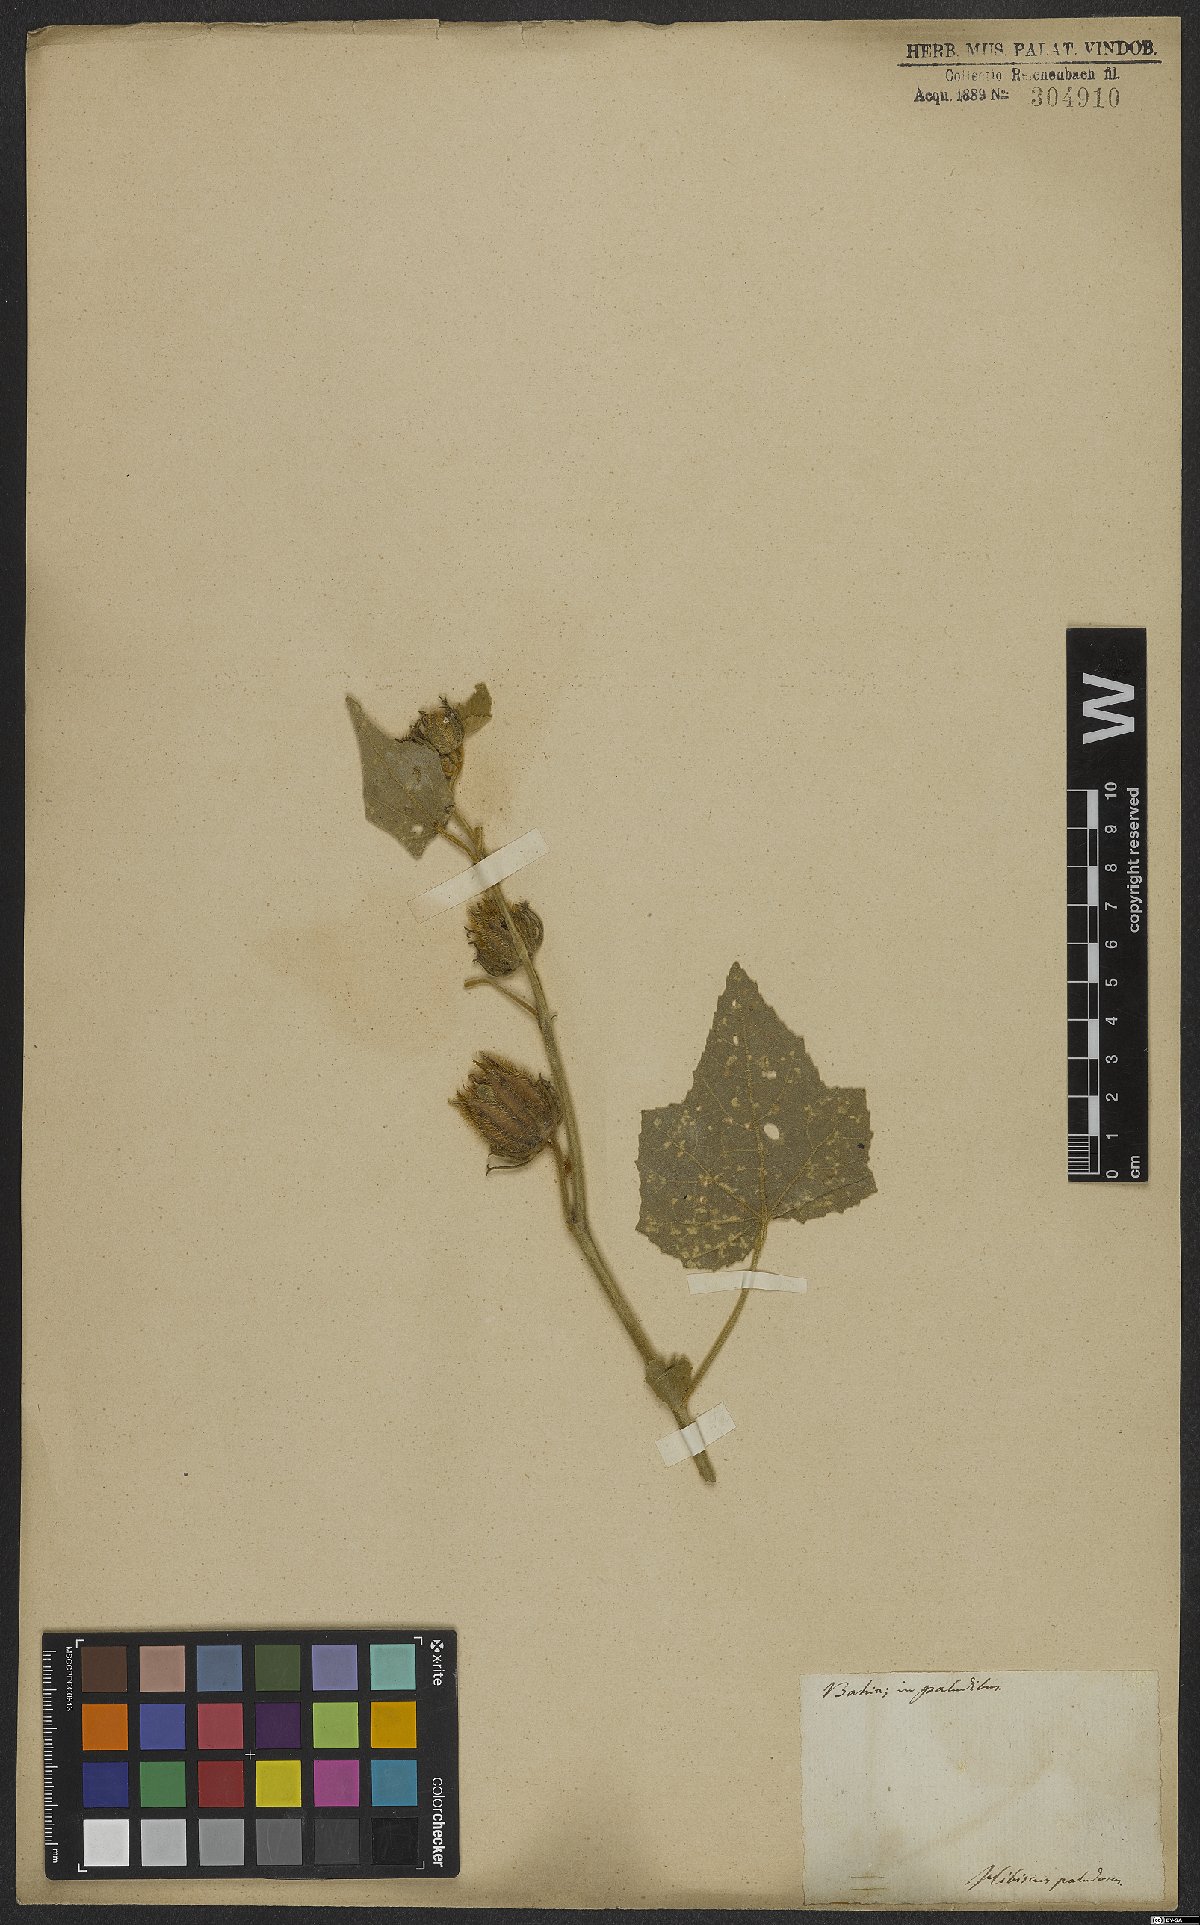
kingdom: Plantae
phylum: Tracheophyta
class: Magnoliopsida
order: Malvales
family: Malvaceae
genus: Hibiscus
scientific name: Hibiscus moscheutos
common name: Common rose-mallow
